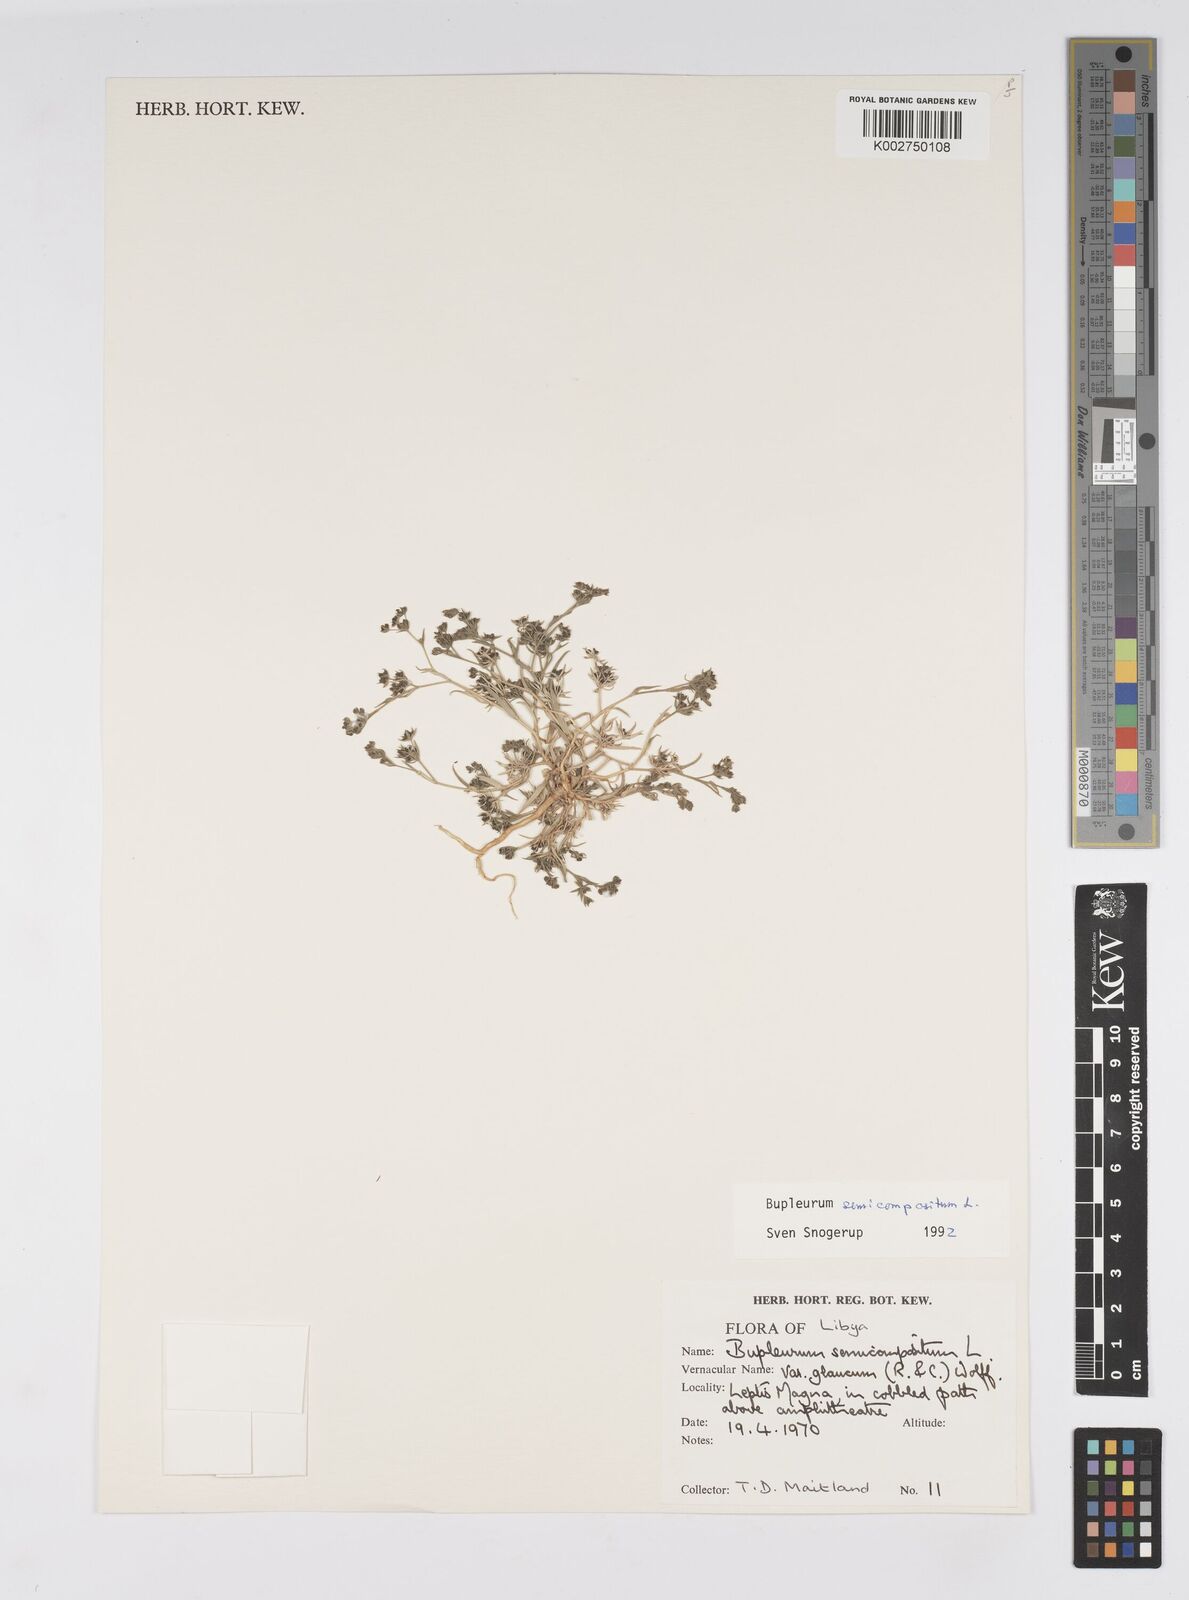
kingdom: Plantae
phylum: Tracheophyta
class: Magnoliopsida
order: Apiales
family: Apiaceae
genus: Bupleurum
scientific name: Bupleurum semicompositum
